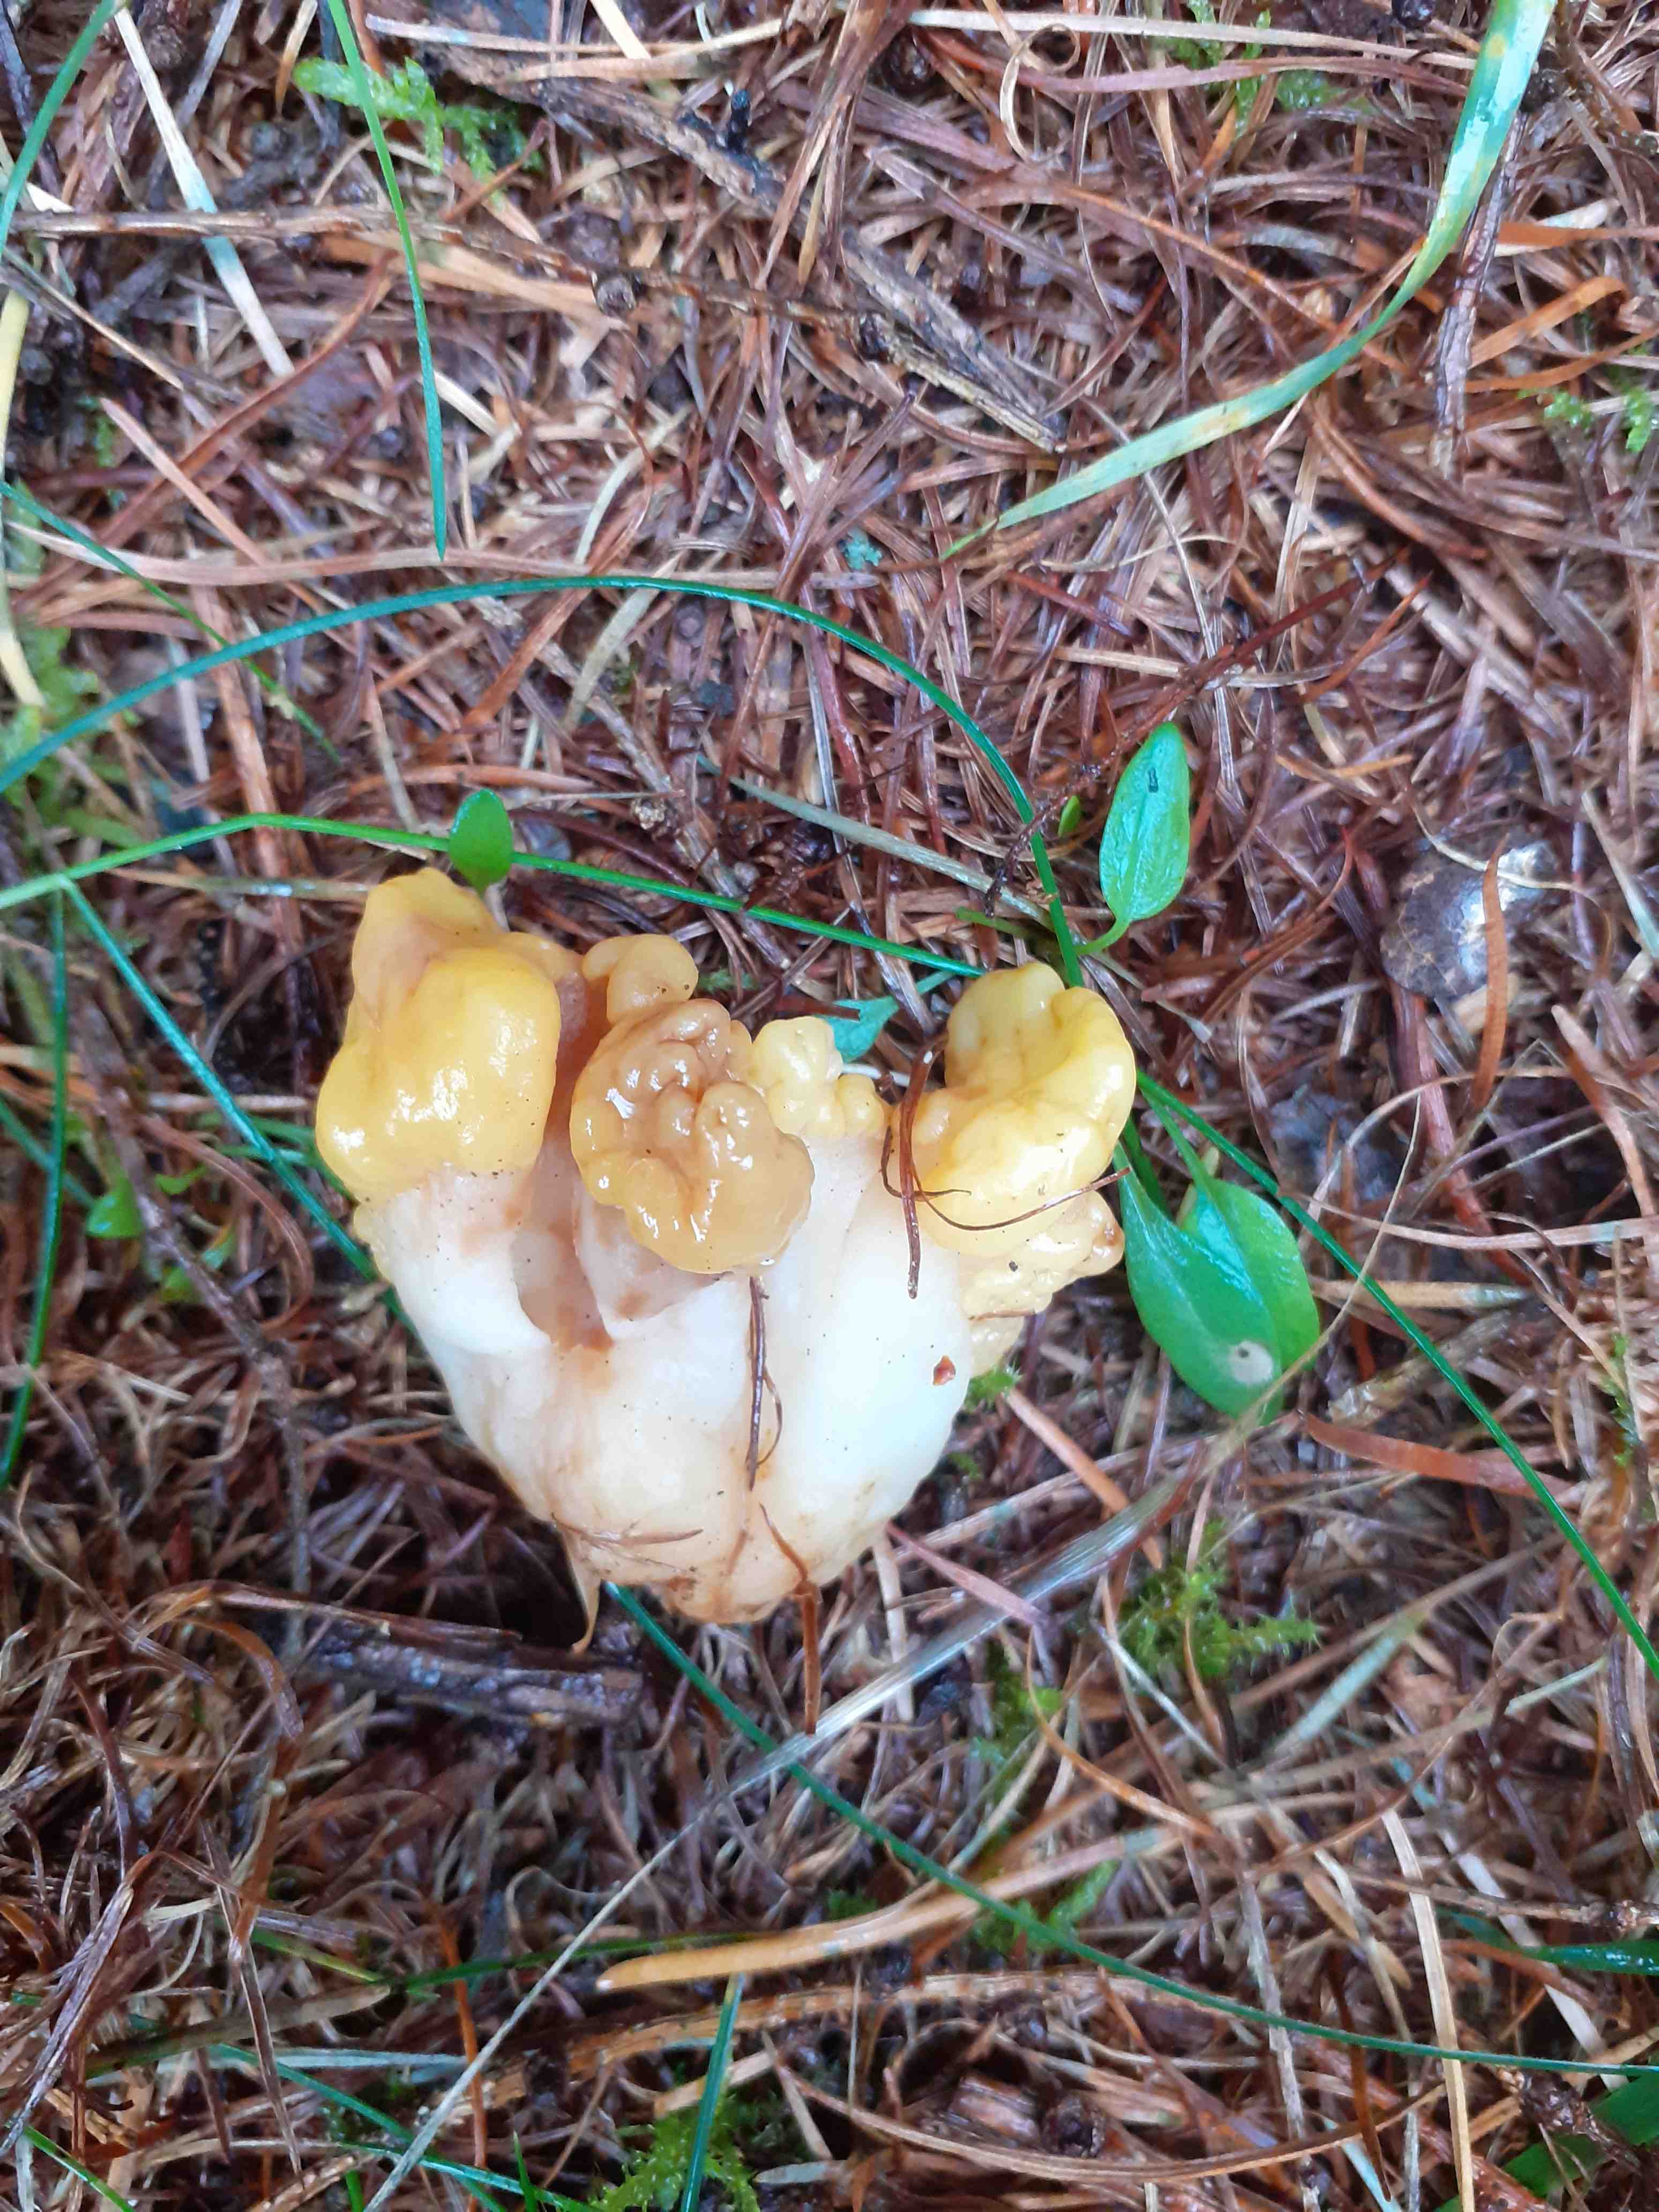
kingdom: Fungi
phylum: Ascomycota
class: Leotiomycetes
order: Rhytismatales
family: Cudoniaceae
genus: Spathularia
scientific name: Spathularia flavida
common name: gul spatelsvamp
